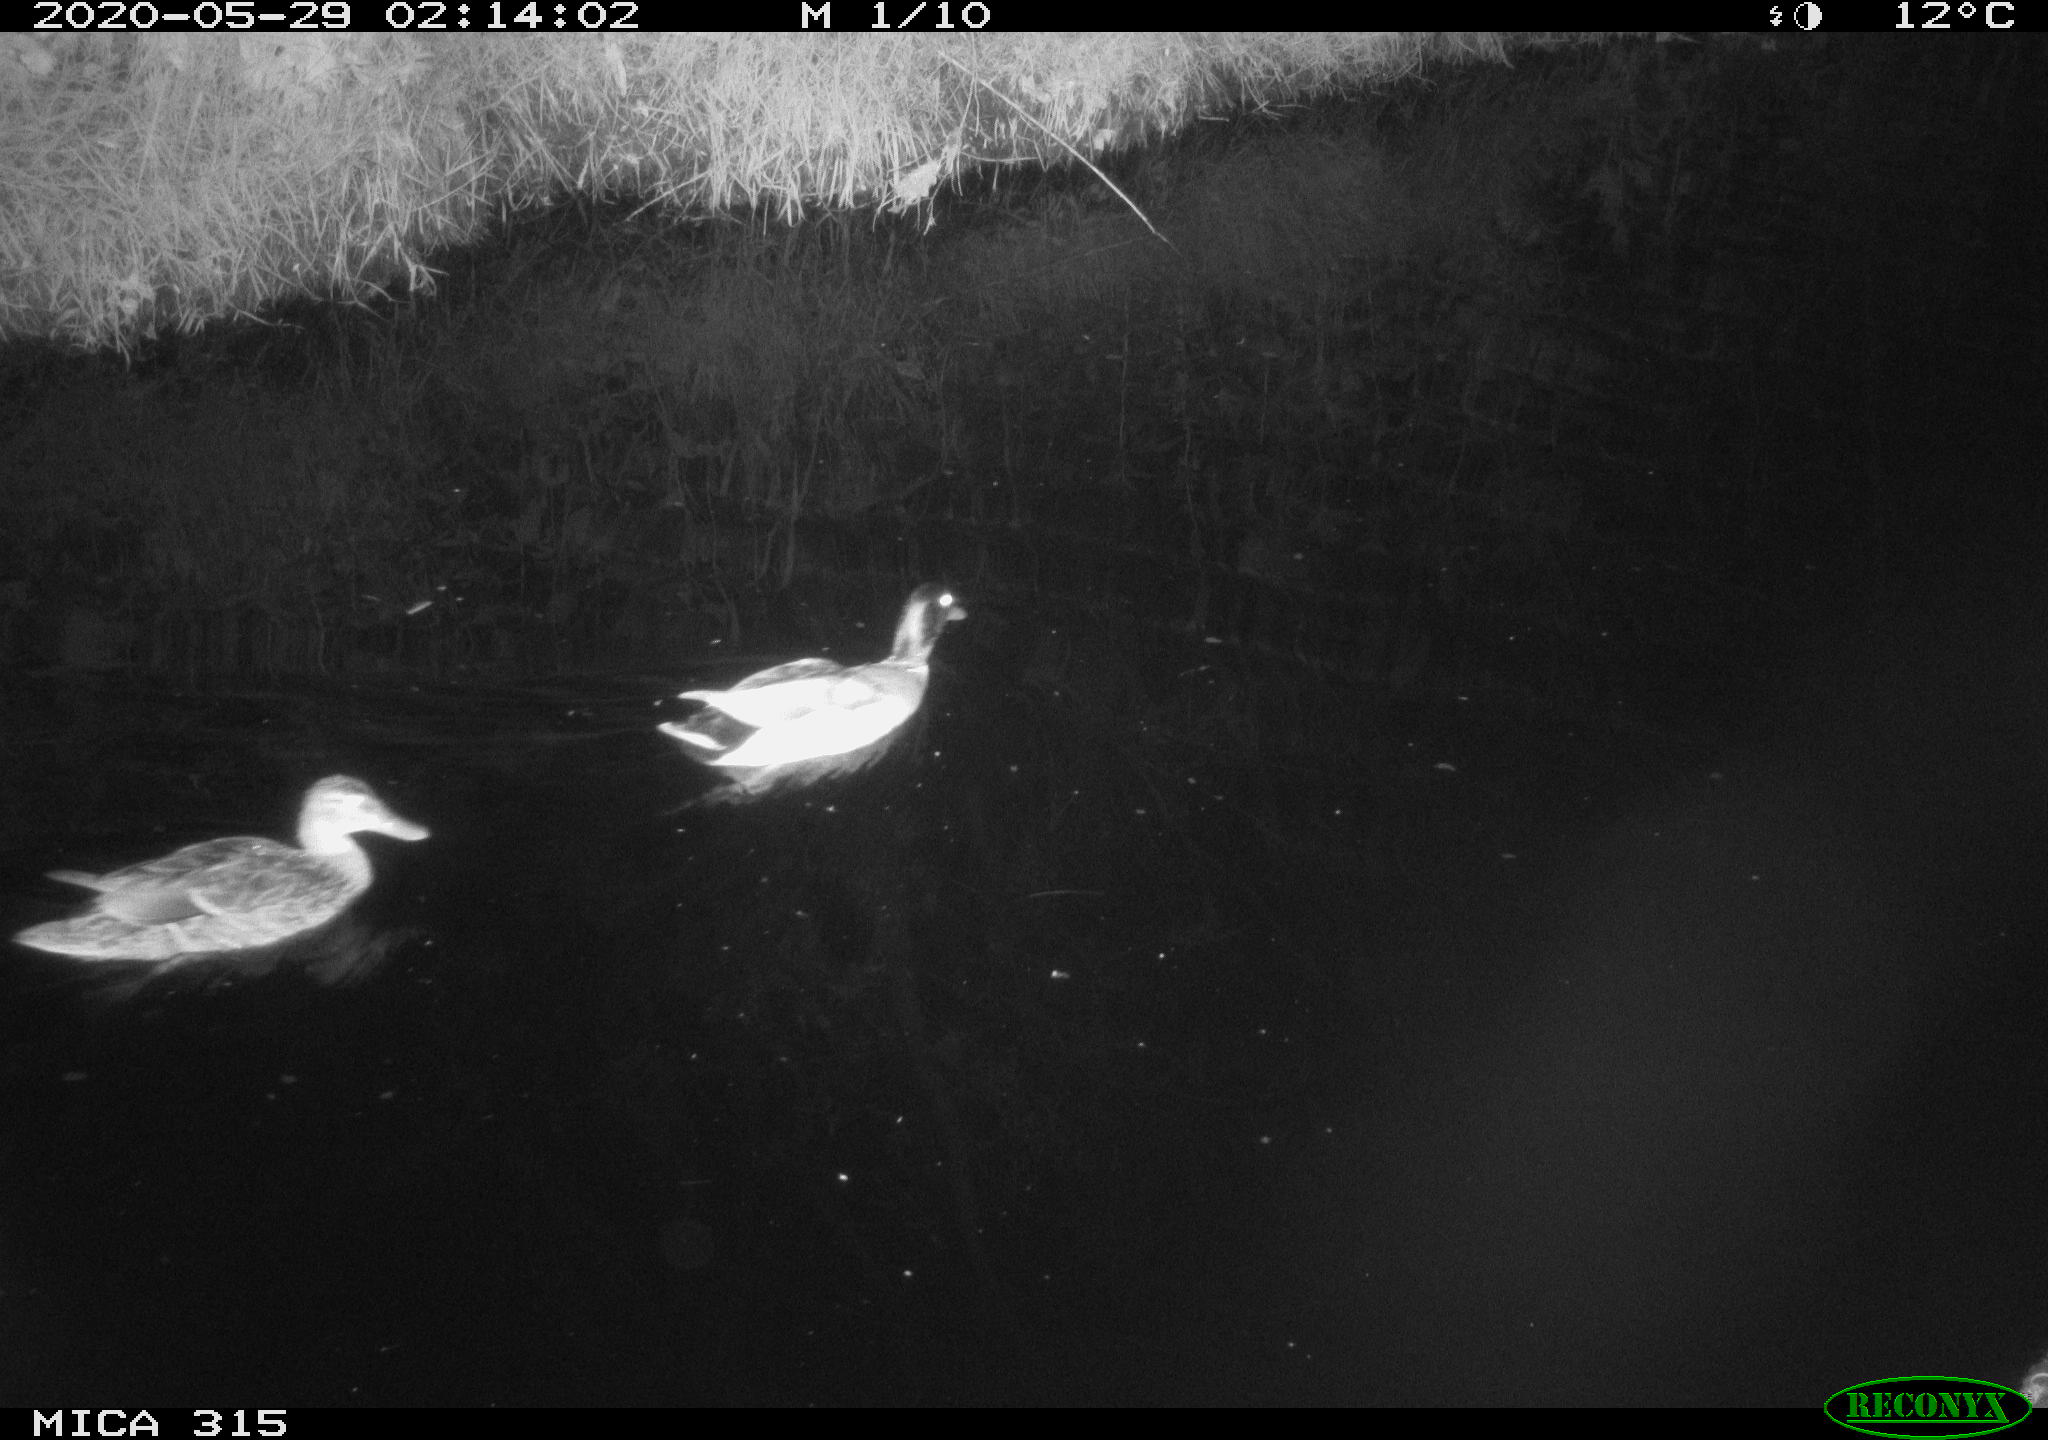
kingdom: Animalia
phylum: Chordata
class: Aves
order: Anseriformes
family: Anatidae
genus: Anas
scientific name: Anas platyrhynchos
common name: Mallard
